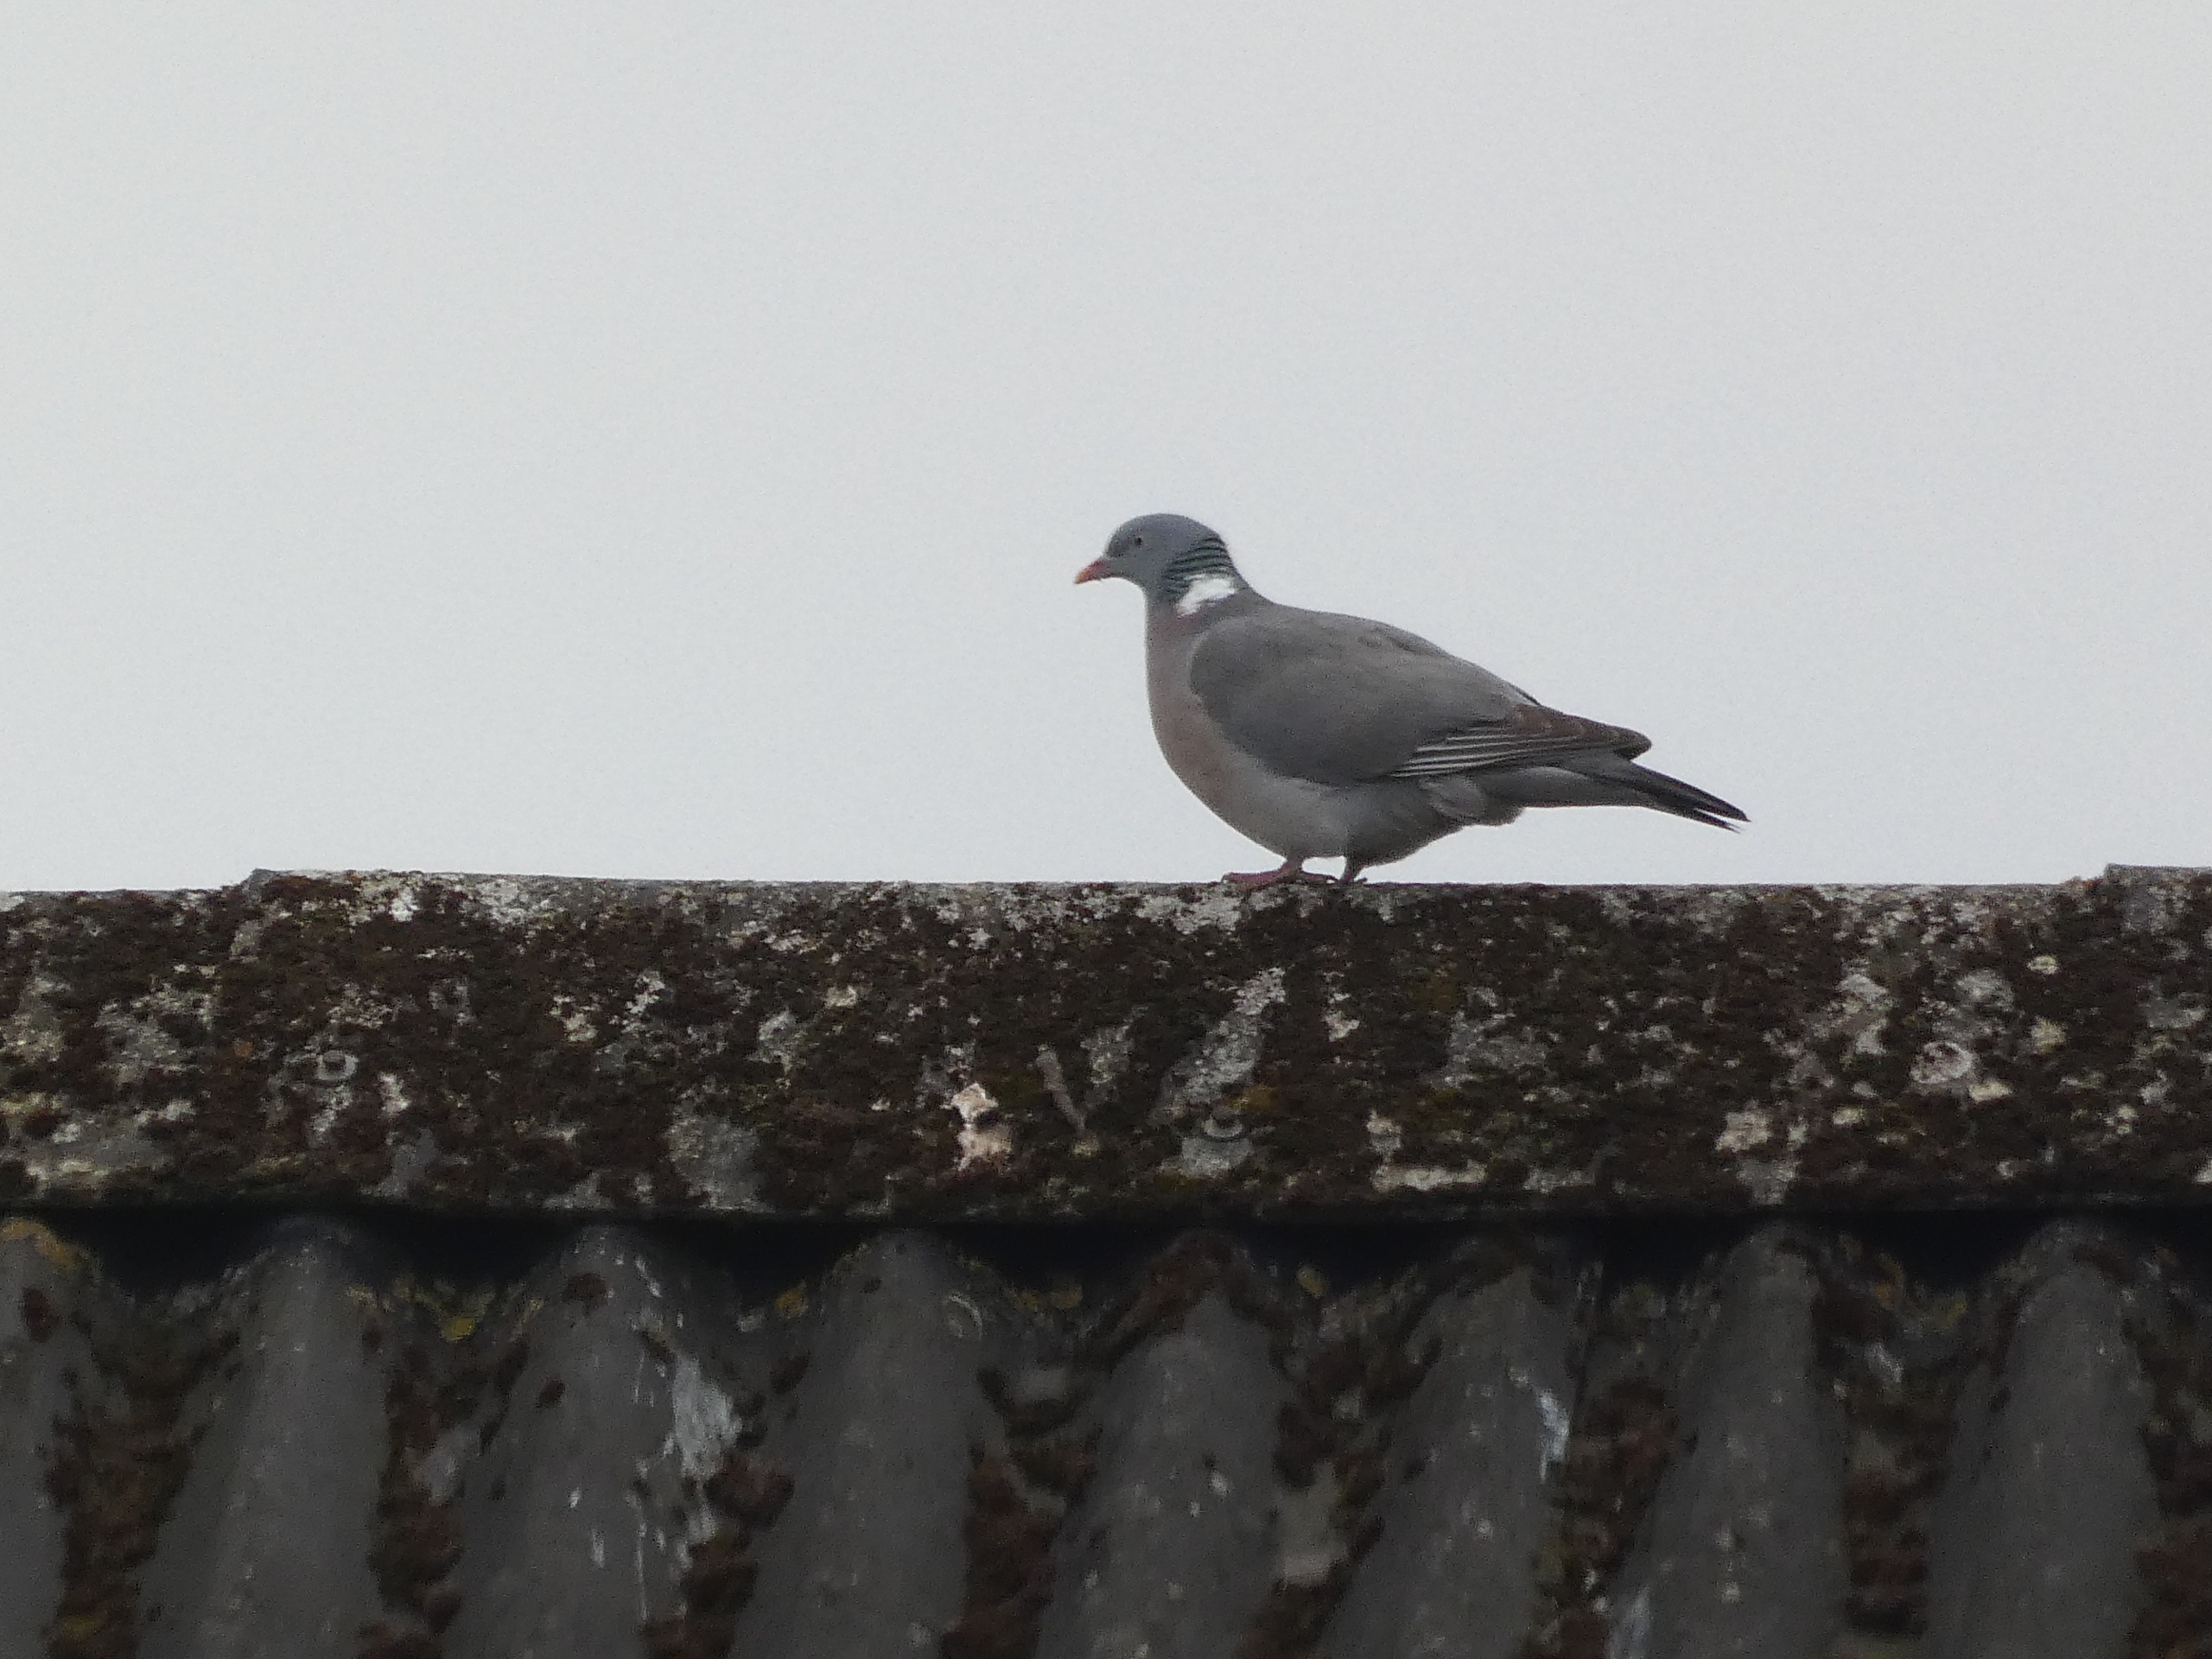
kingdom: Animalia
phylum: Chordata
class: Aves
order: Columbiformes
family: Columbidae
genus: Columba
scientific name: Columba palumbus
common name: Ringdue
